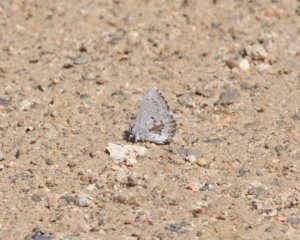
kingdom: Animalia
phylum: Arthropoda
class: Insecta
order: Lepidoptera
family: Lycaenidae
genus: Celastrina
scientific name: Celastrina lucia
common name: Northern Spring Azure
